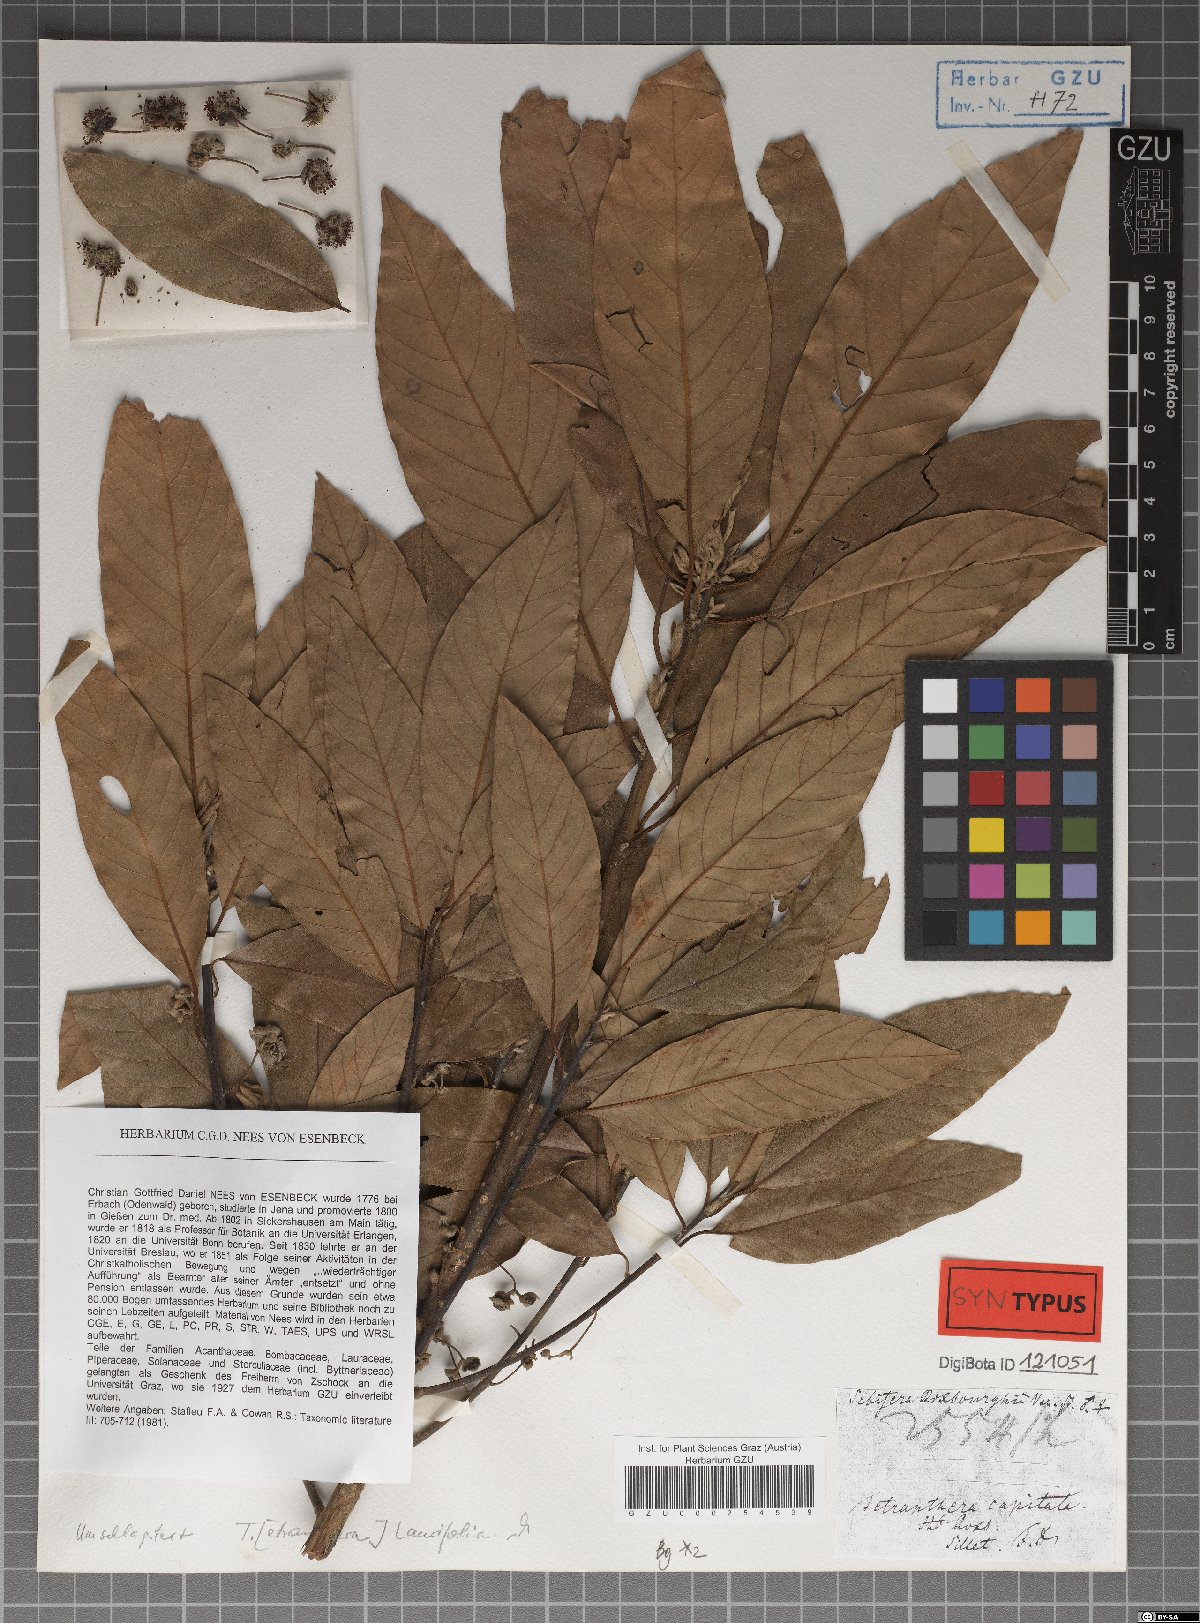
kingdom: Plantae
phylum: Tracheophyta
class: Magnoliopsida
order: Laurales
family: Lauraceae
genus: Litsea
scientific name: Litsea glutinosa
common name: Indian-laurel
